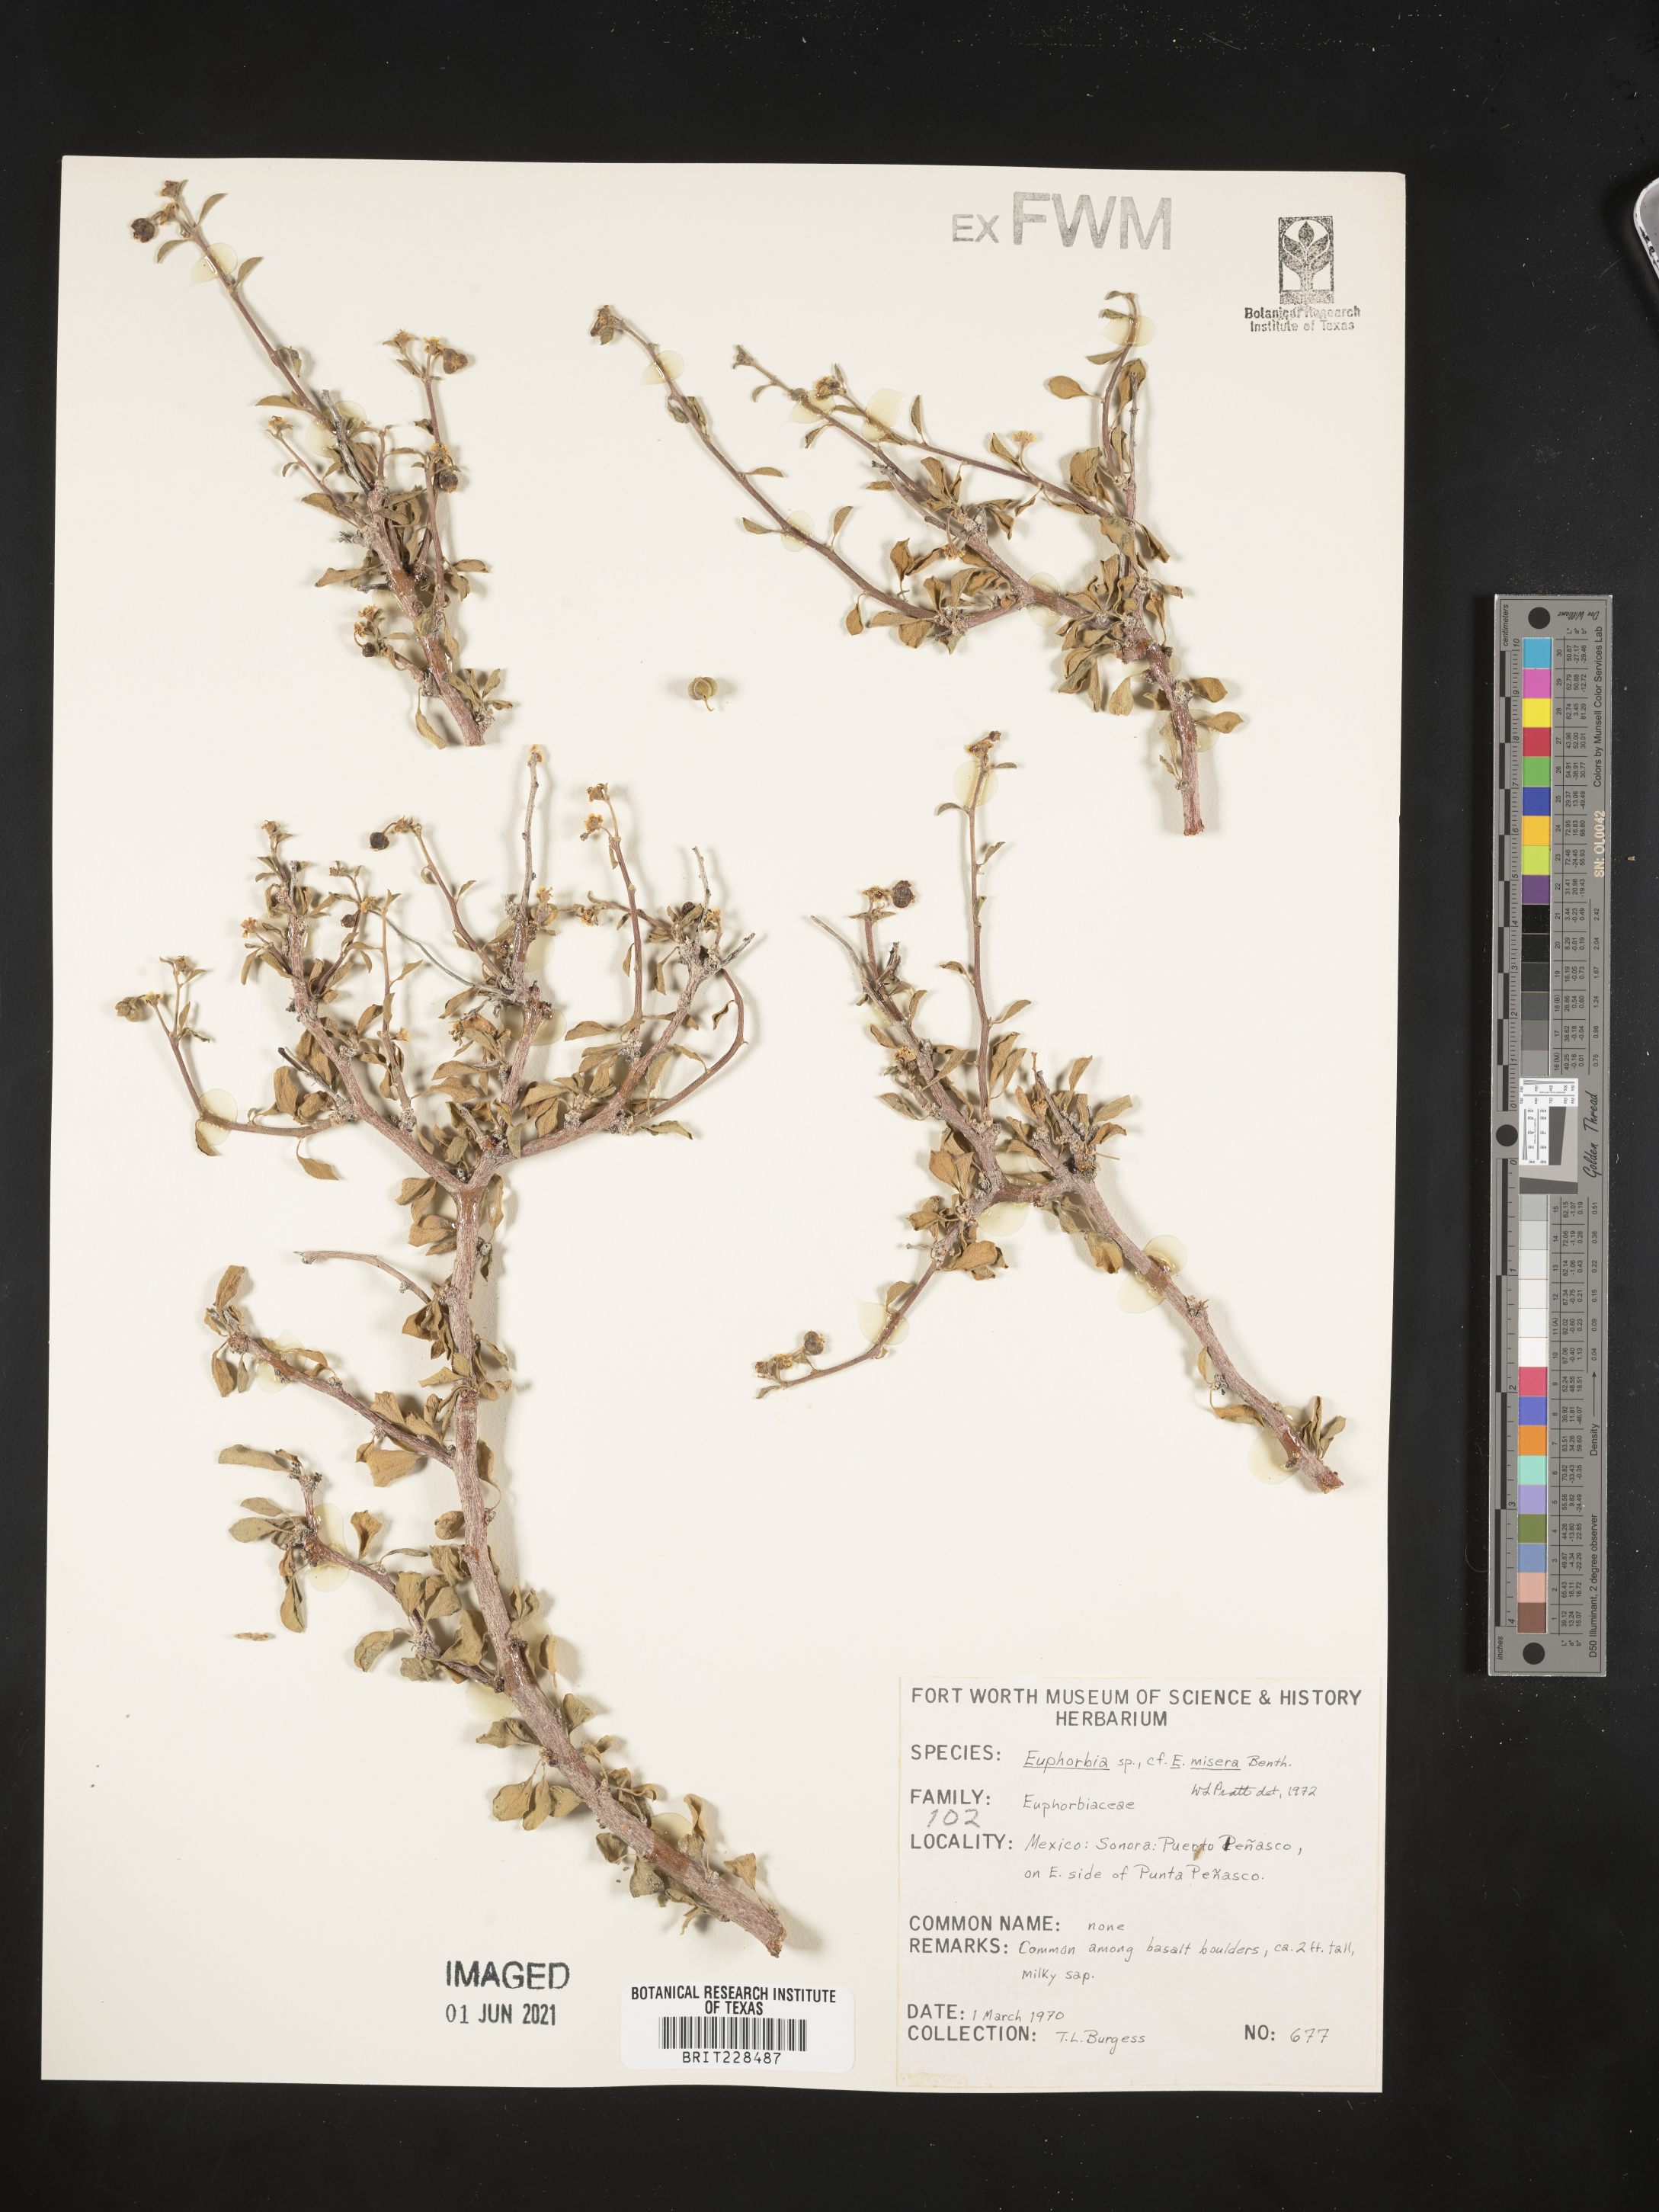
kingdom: Plantae
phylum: Tracheophyta
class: Magnoliopsida
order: Malpighiales
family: Euphorbiaceae
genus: Euphorbia
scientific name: Euphorbia misera
